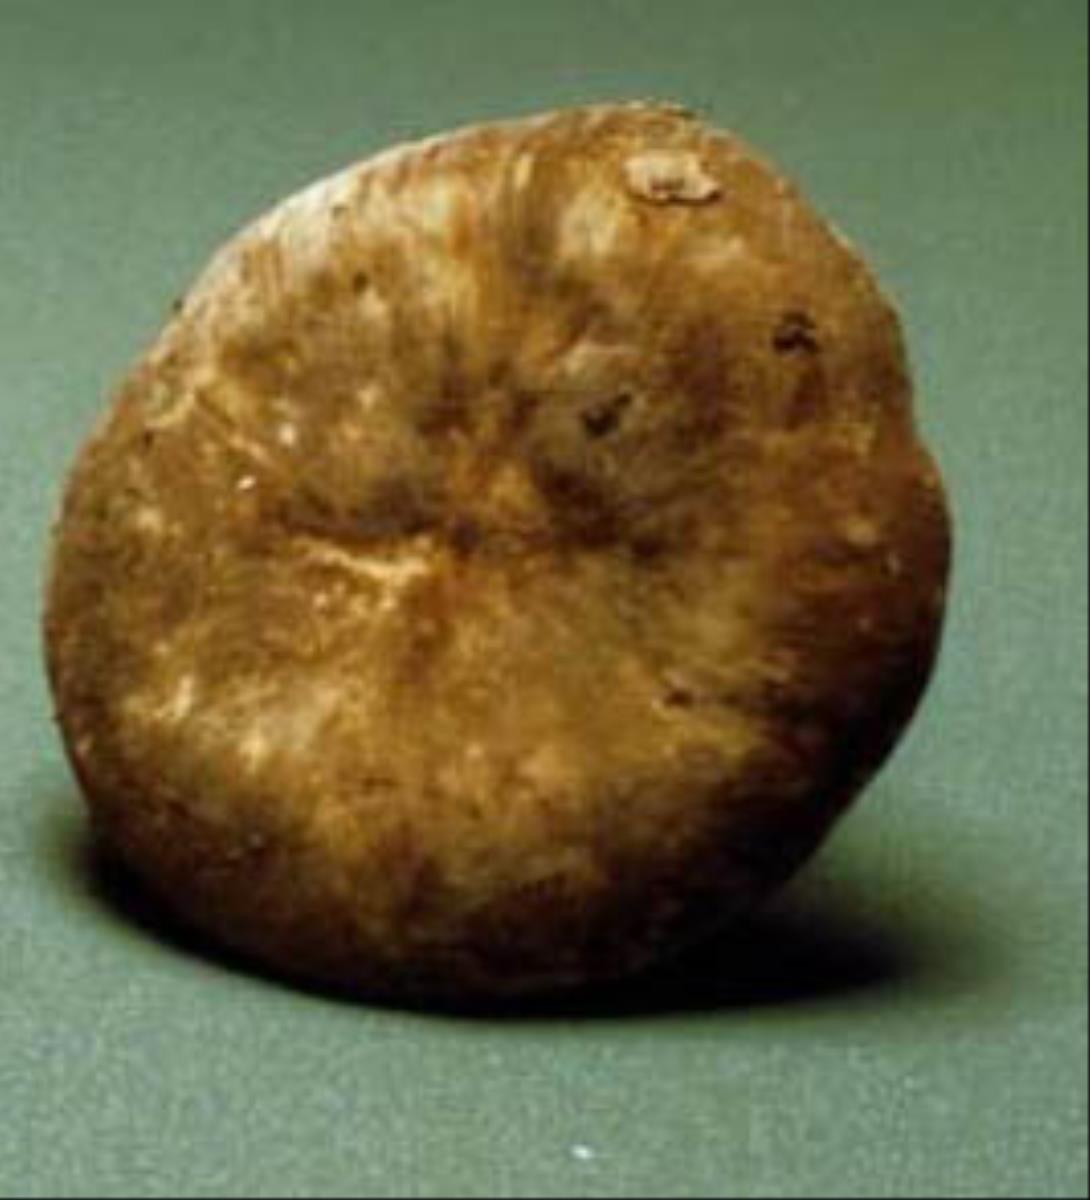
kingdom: Fungi
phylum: Basidiomycota
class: Agaricomycetes
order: Russulales
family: Russulaceae
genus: Lactifluus
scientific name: Lactifluus sepiaceus
